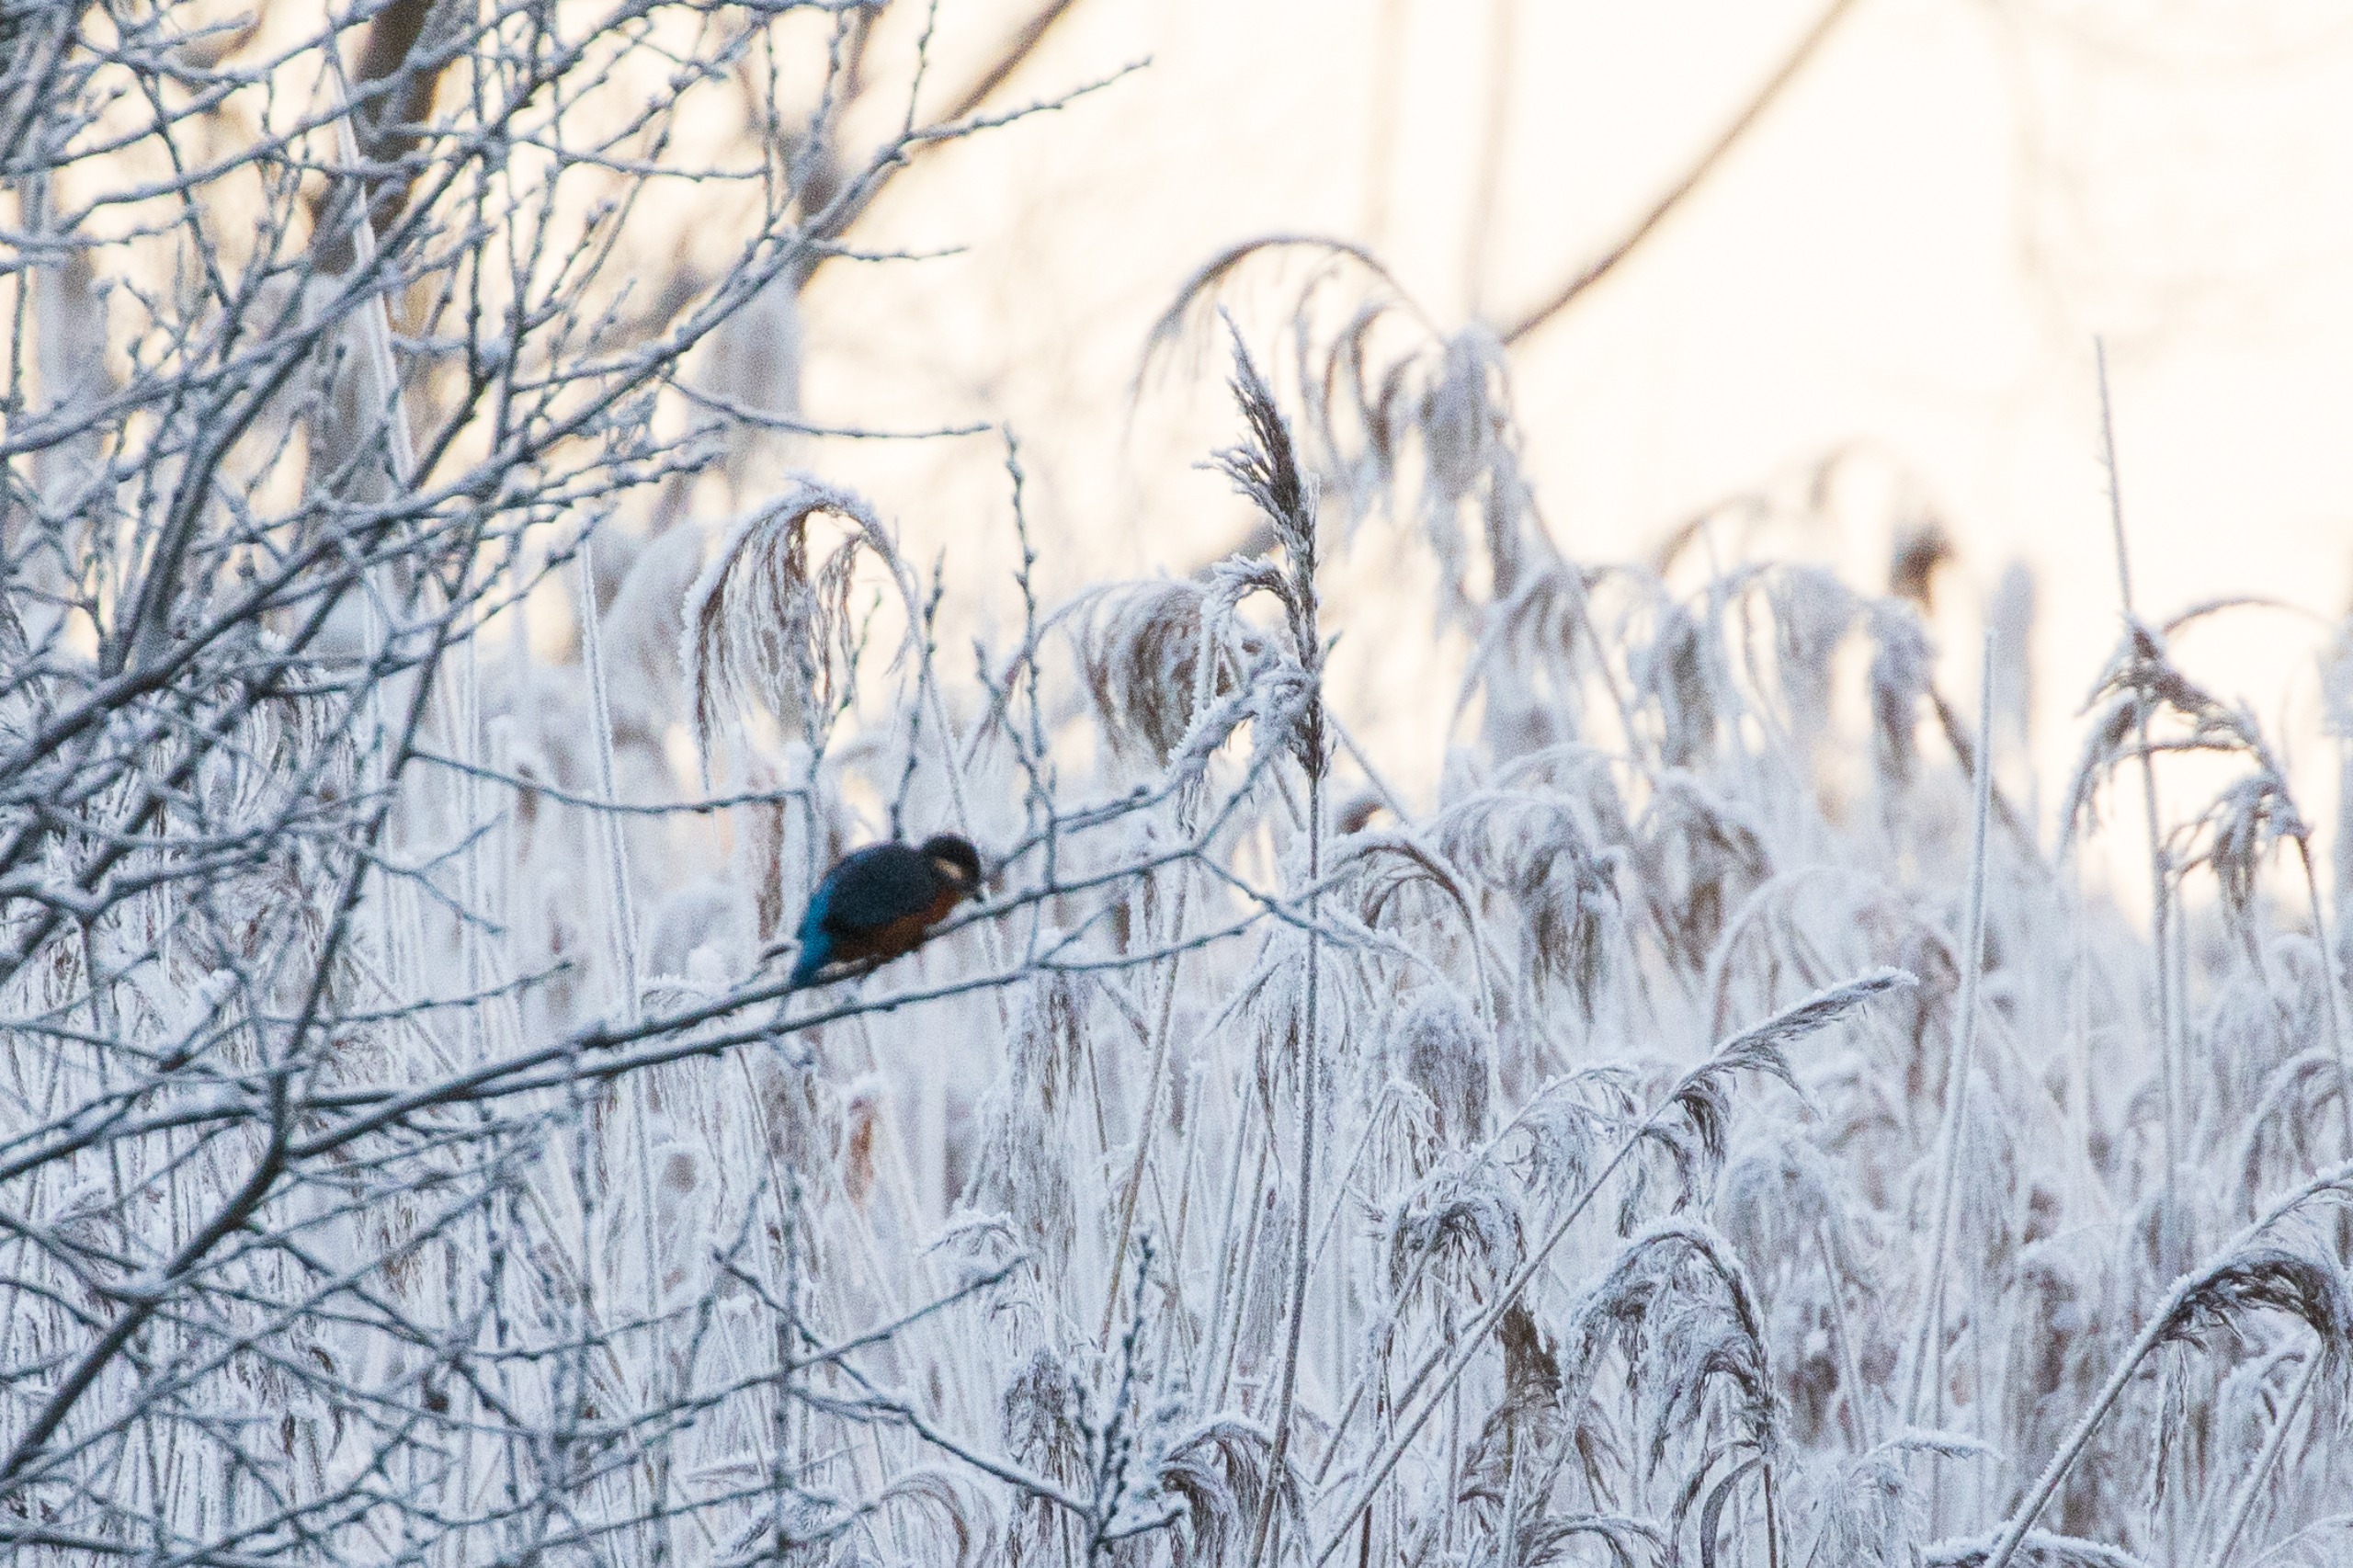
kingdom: Animalia
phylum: Chordata
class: Aves
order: Coraciiformes
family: Alcedinidae
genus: Alcedo
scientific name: Alcedo atthis
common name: Isfugl
